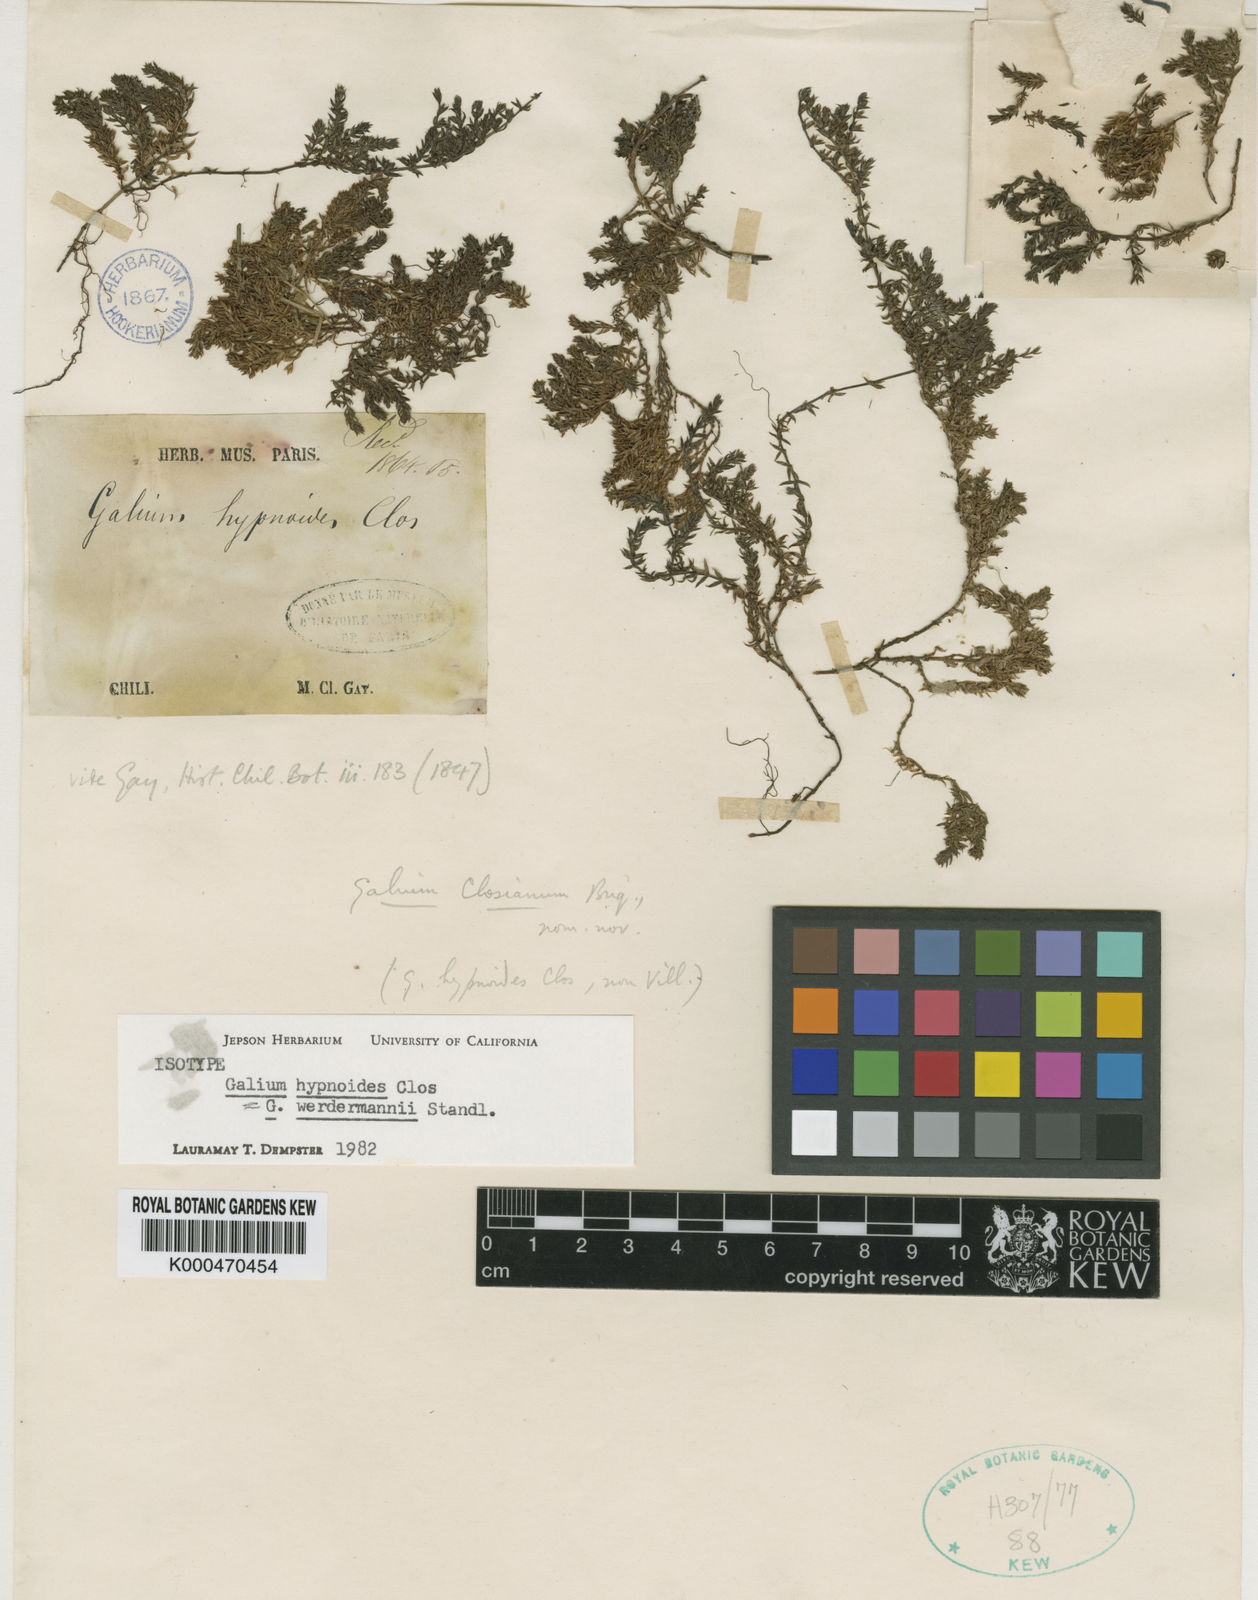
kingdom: Plantae
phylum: Tracheophyta
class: Magnoliopsida
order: Gentianales
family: Rubiaceae
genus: Galium
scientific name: Galium werdermannii
